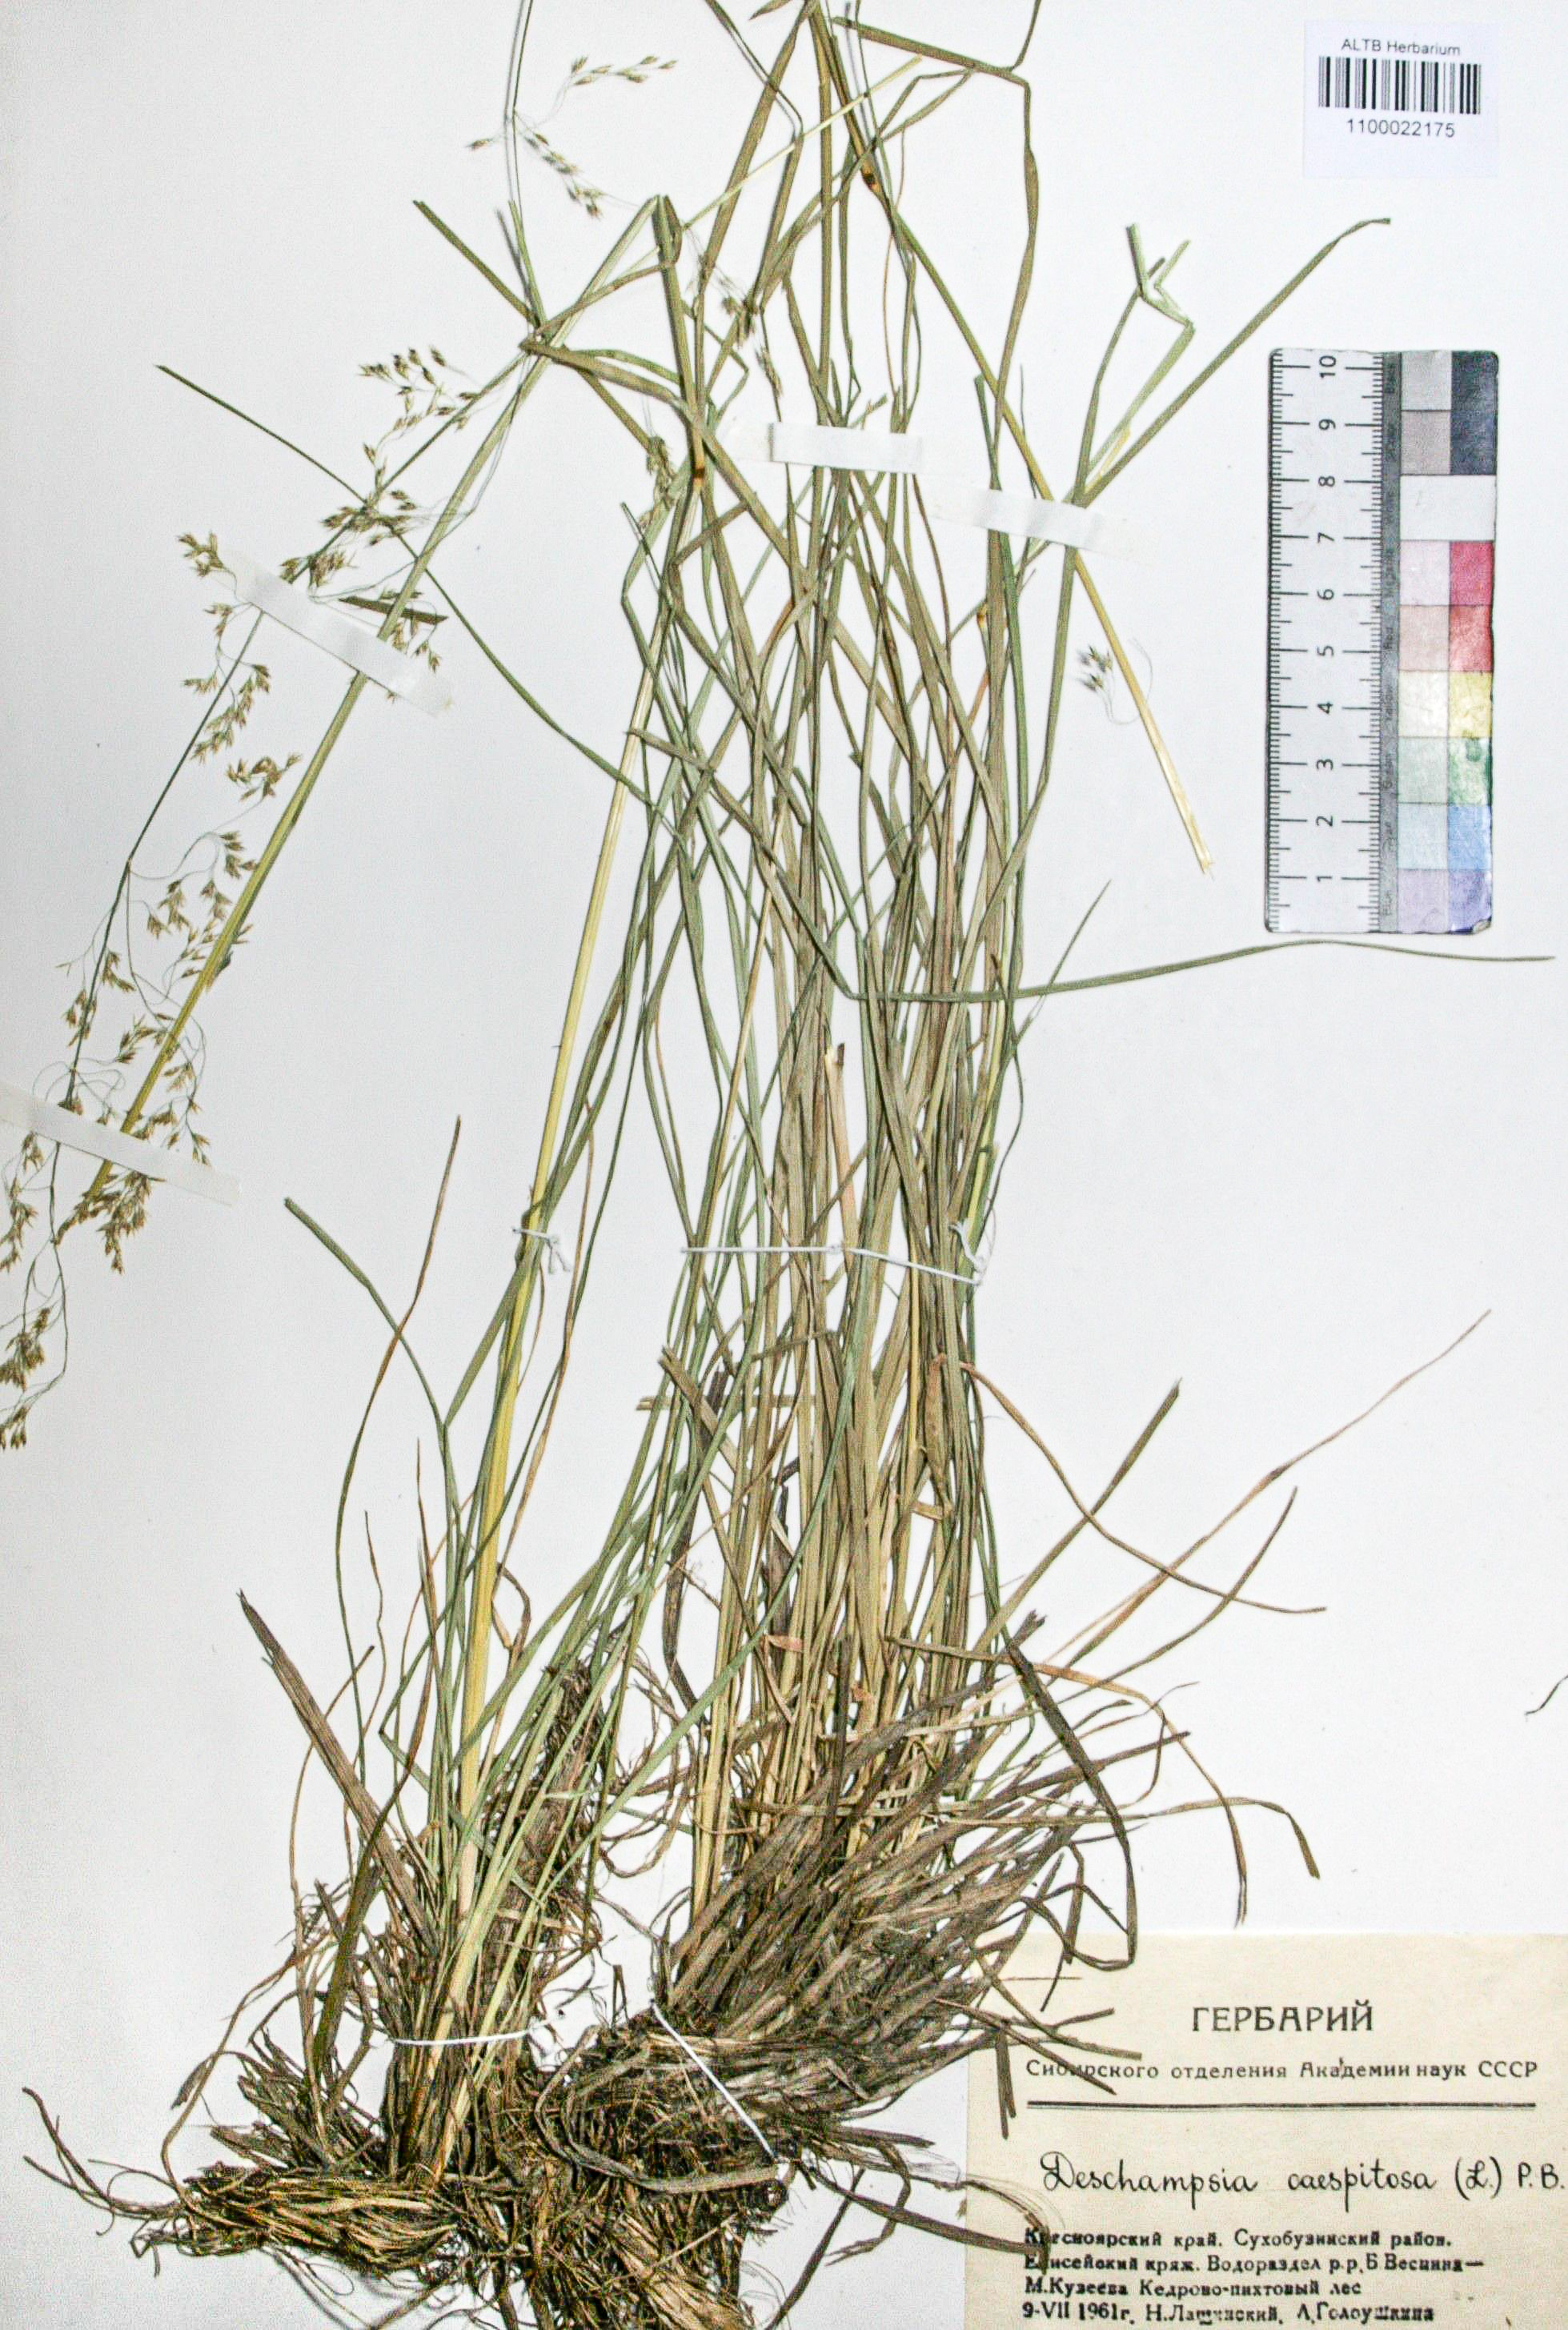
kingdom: Plantae
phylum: Tracheophyta
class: Liliopsida
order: Poales
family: Poaceae
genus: Deschampsia
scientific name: Deschampsia cespitosa
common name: Tufted hair-grass
